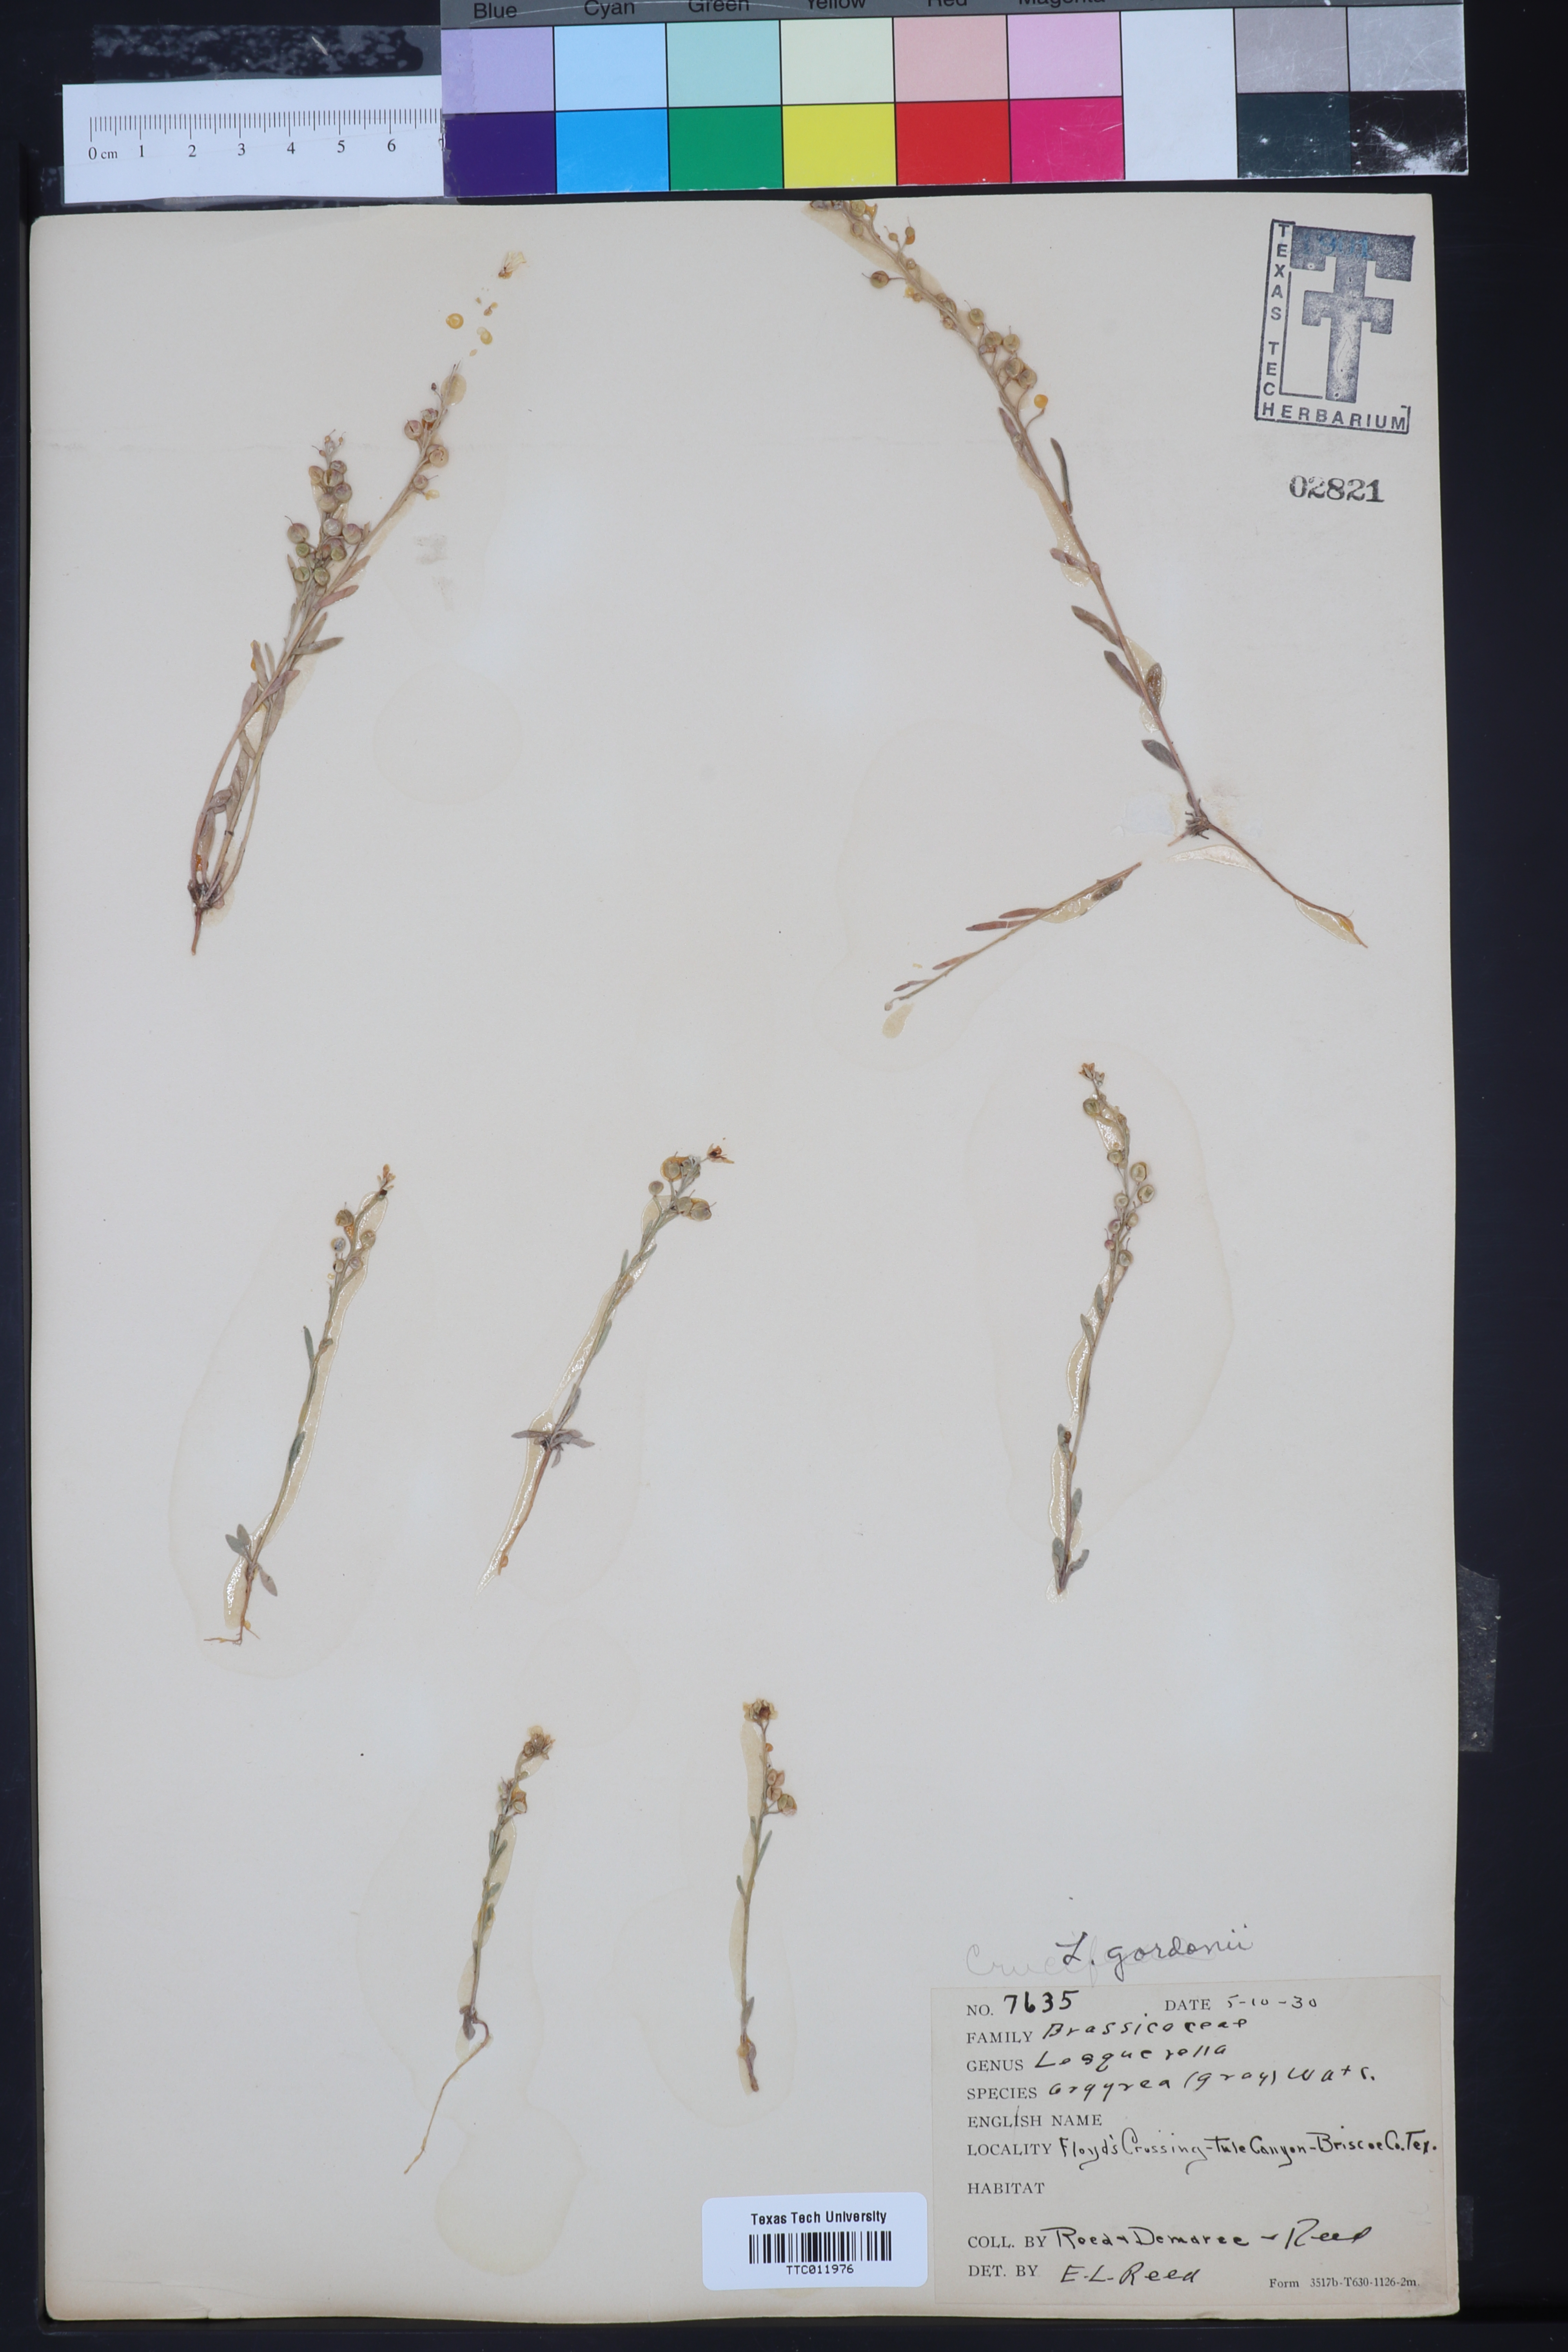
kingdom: Plantae
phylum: Tracheophyta
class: Magnoliopsida
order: Brassicales
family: Brassicaceae
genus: Physaria
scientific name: Physaria gordonii
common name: Gordon's bladderpod
